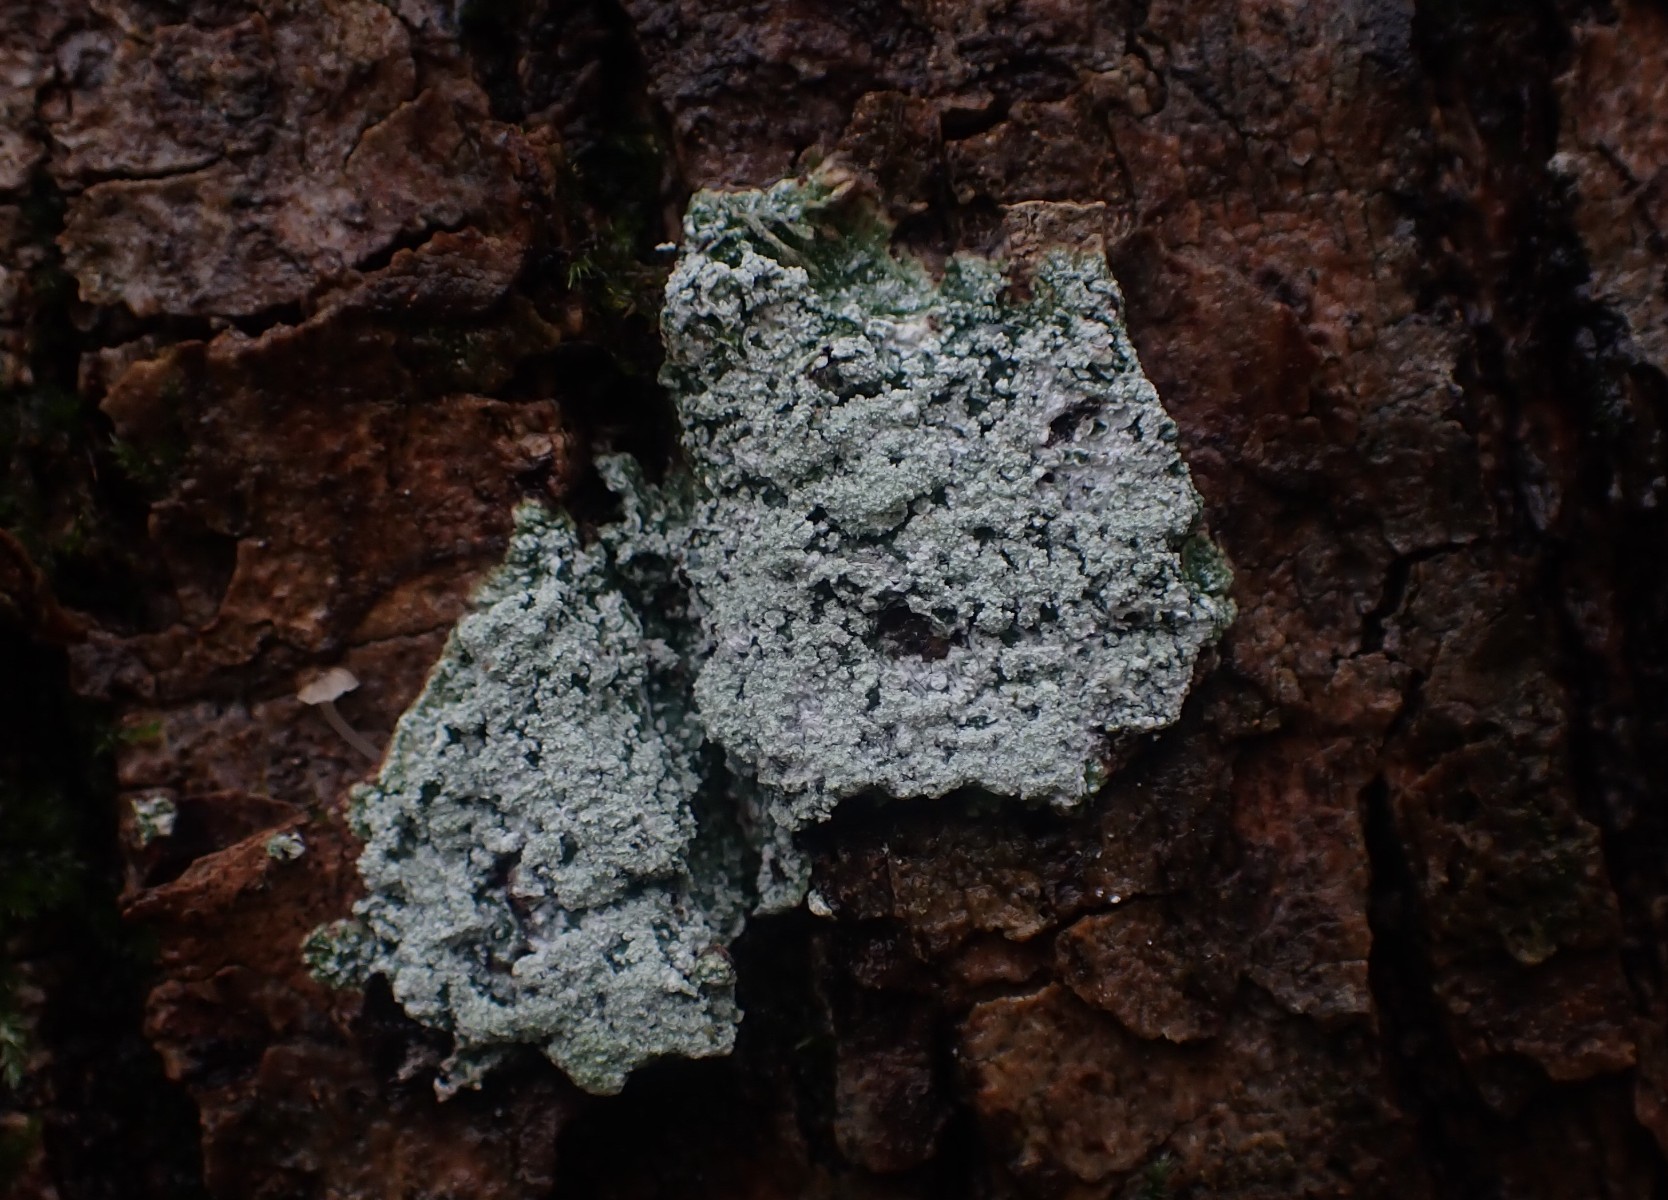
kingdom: Fungi
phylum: Ascomycota
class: Lecanoromycetes
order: Pertusariales
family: Pertusariaceae
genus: Lepra
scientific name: Lepra albescens
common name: hvidmelet prikvortelav
